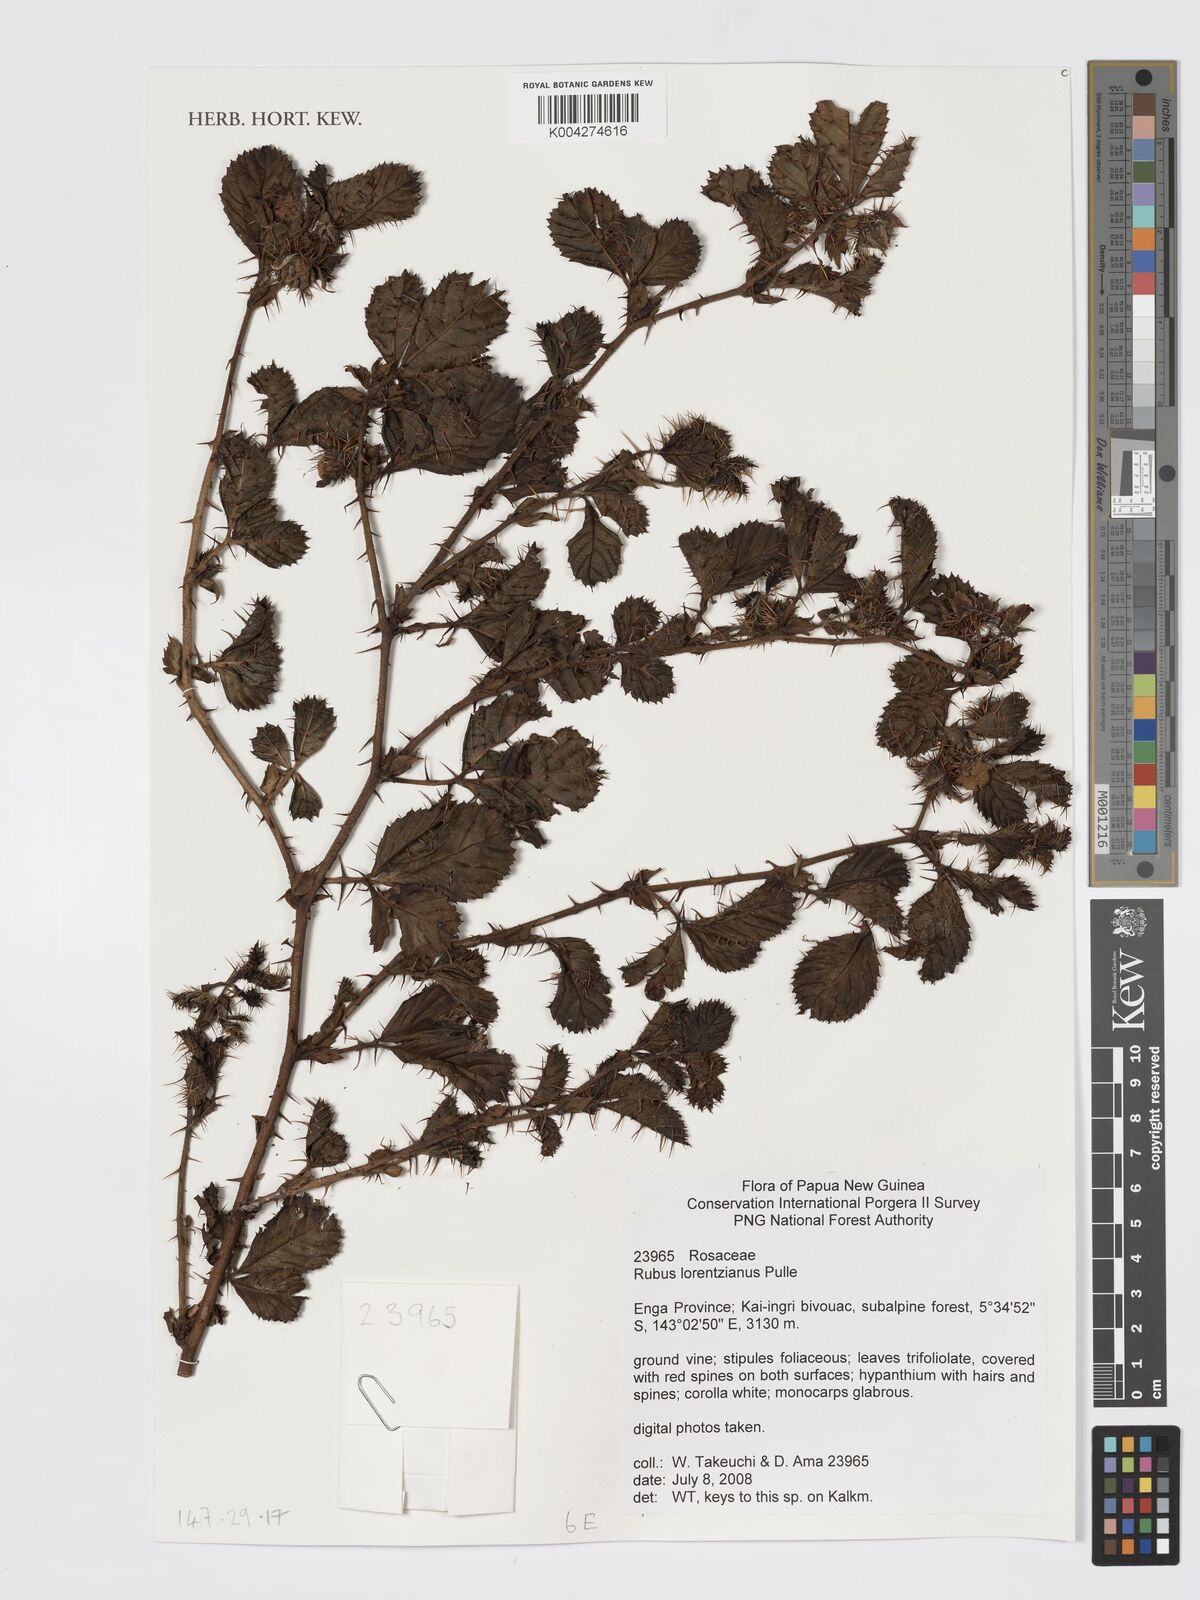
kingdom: Plantae
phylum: Tracheophyta
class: Magnoliopsida
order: Rosales
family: Rosaceae
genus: Rubus
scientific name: Rubus lorentzianus
